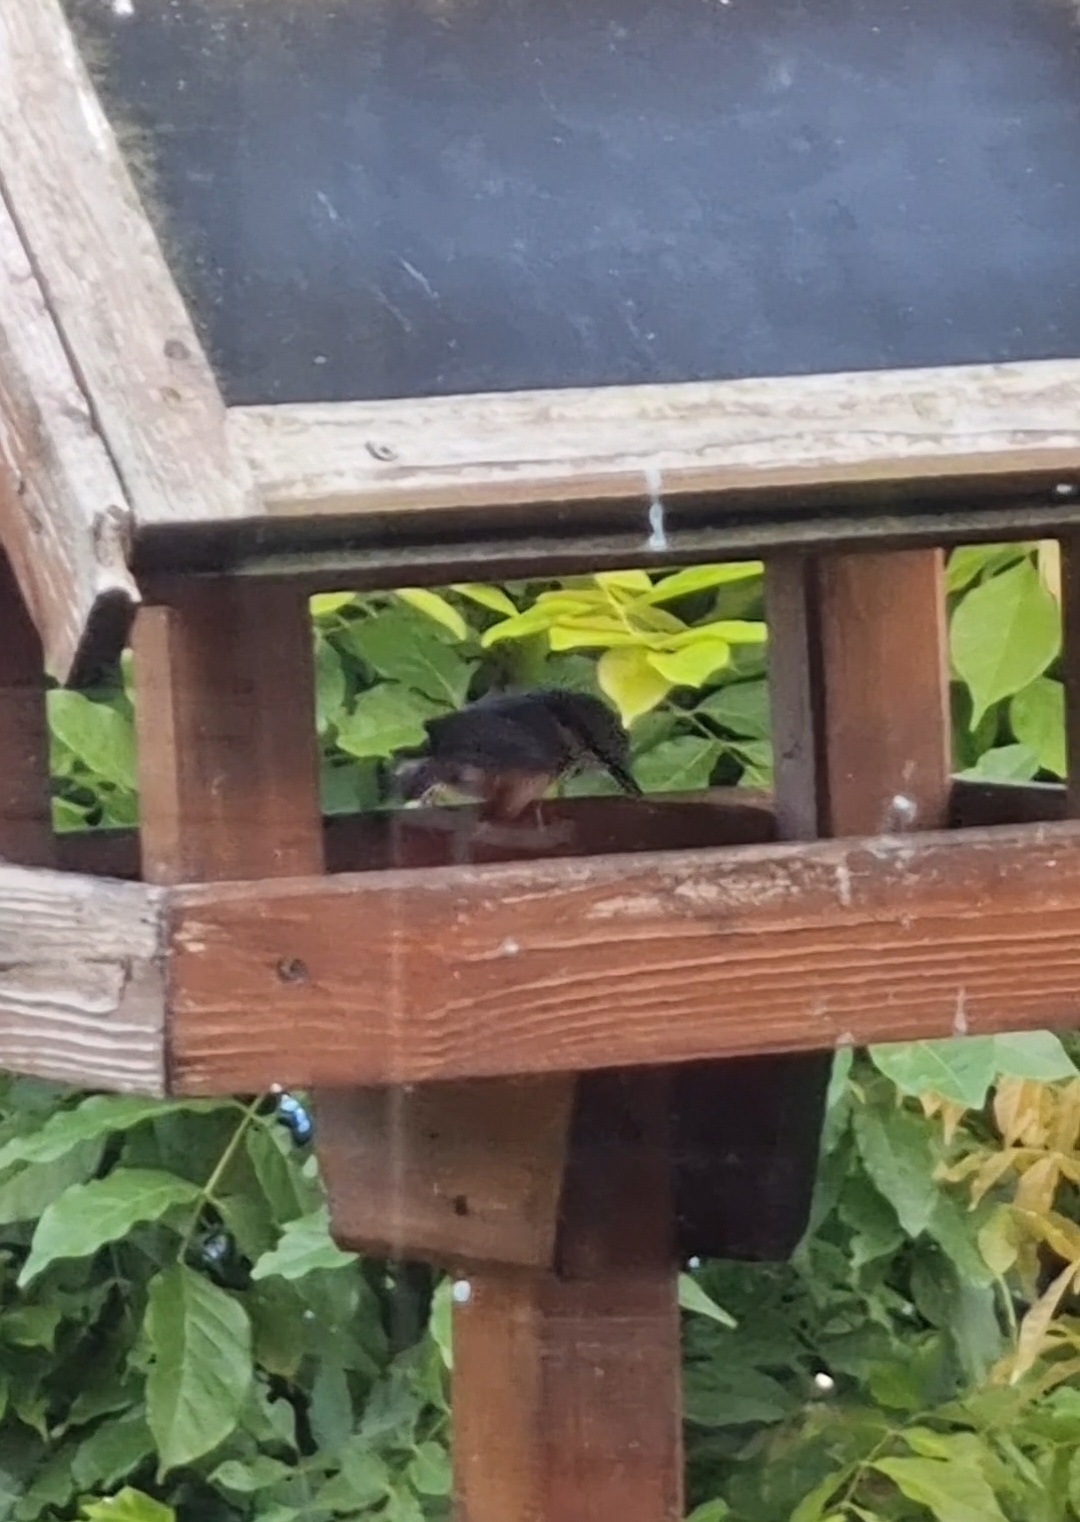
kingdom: Animalia
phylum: Chordata
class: Aves
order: Passeriformes
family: Sittidae
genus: Sitta
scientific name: Sitta europaea
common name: Spætmejse
